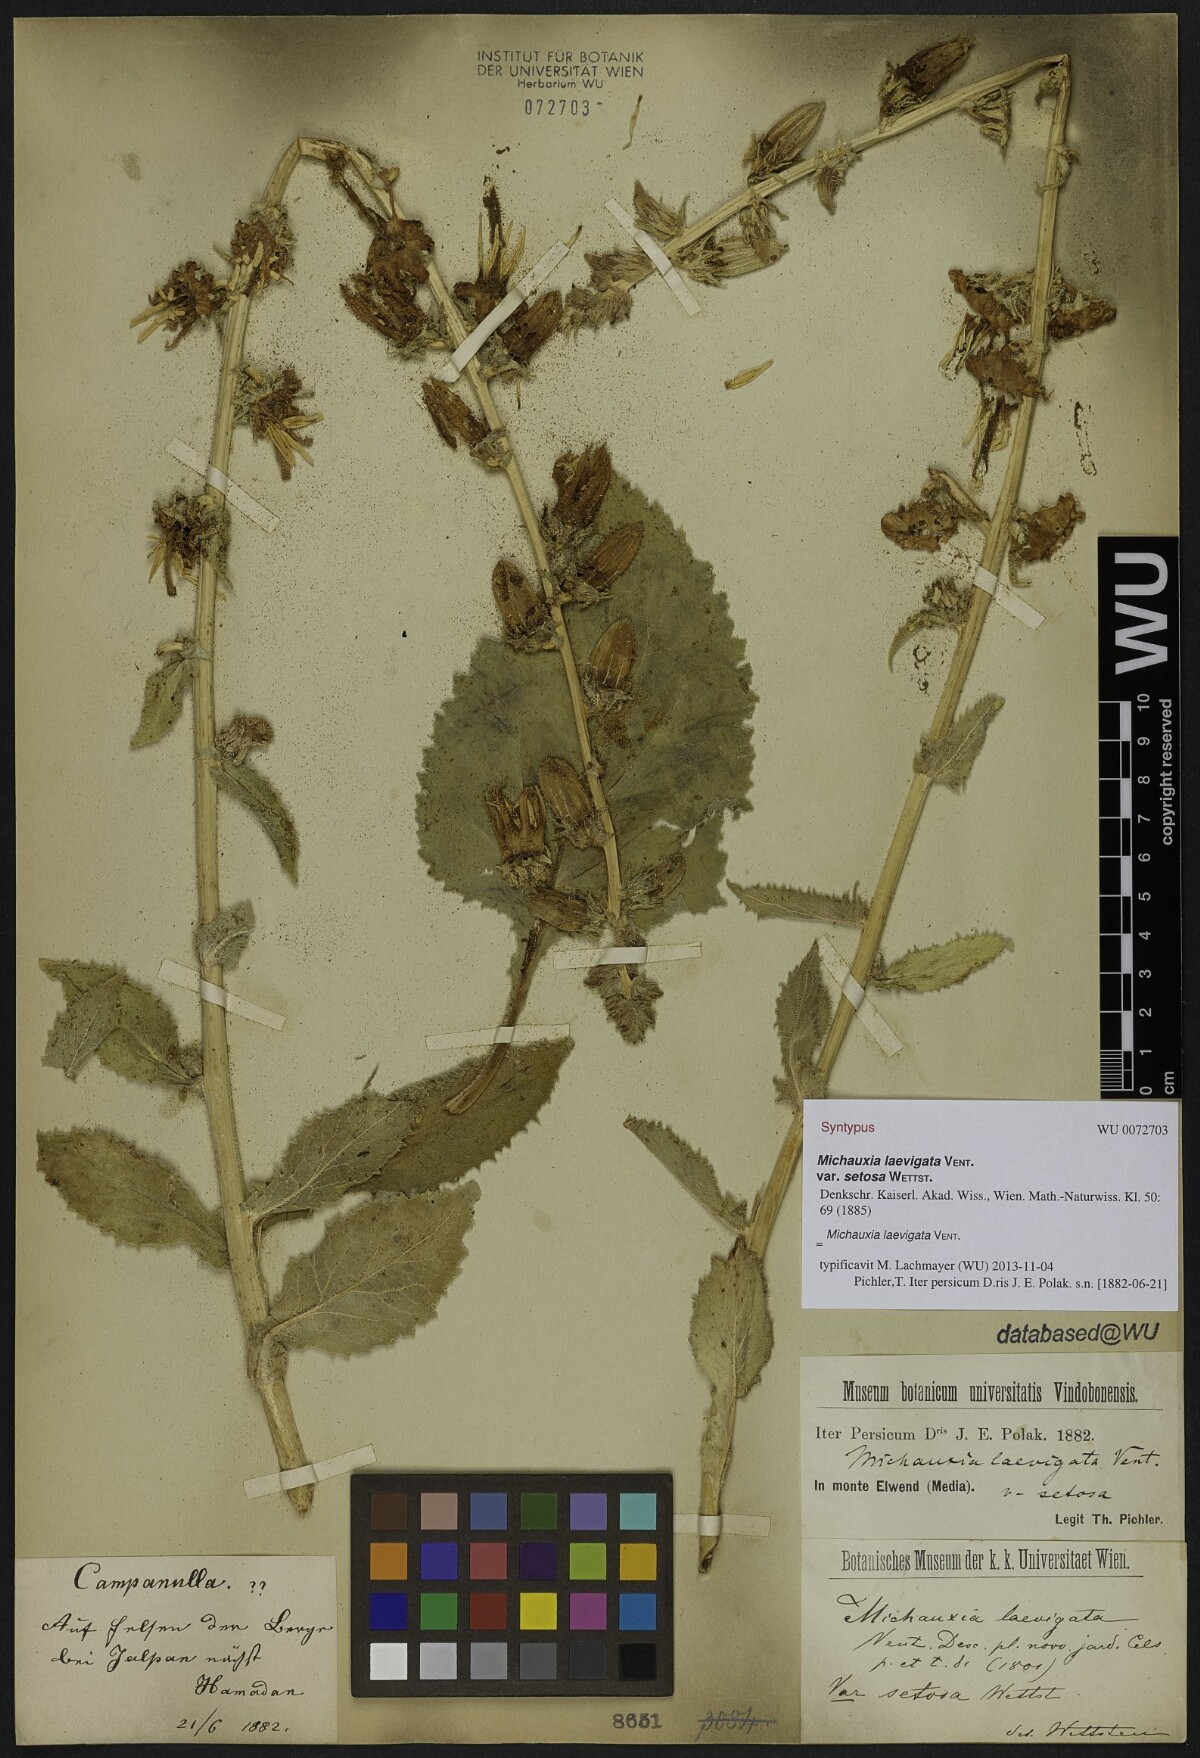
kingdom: Plantae
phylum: Tracheophyta
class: Magnoliopsida
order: Asterales
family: Campanulaceae
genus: Michauxia
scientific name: Michauxia laevigata
